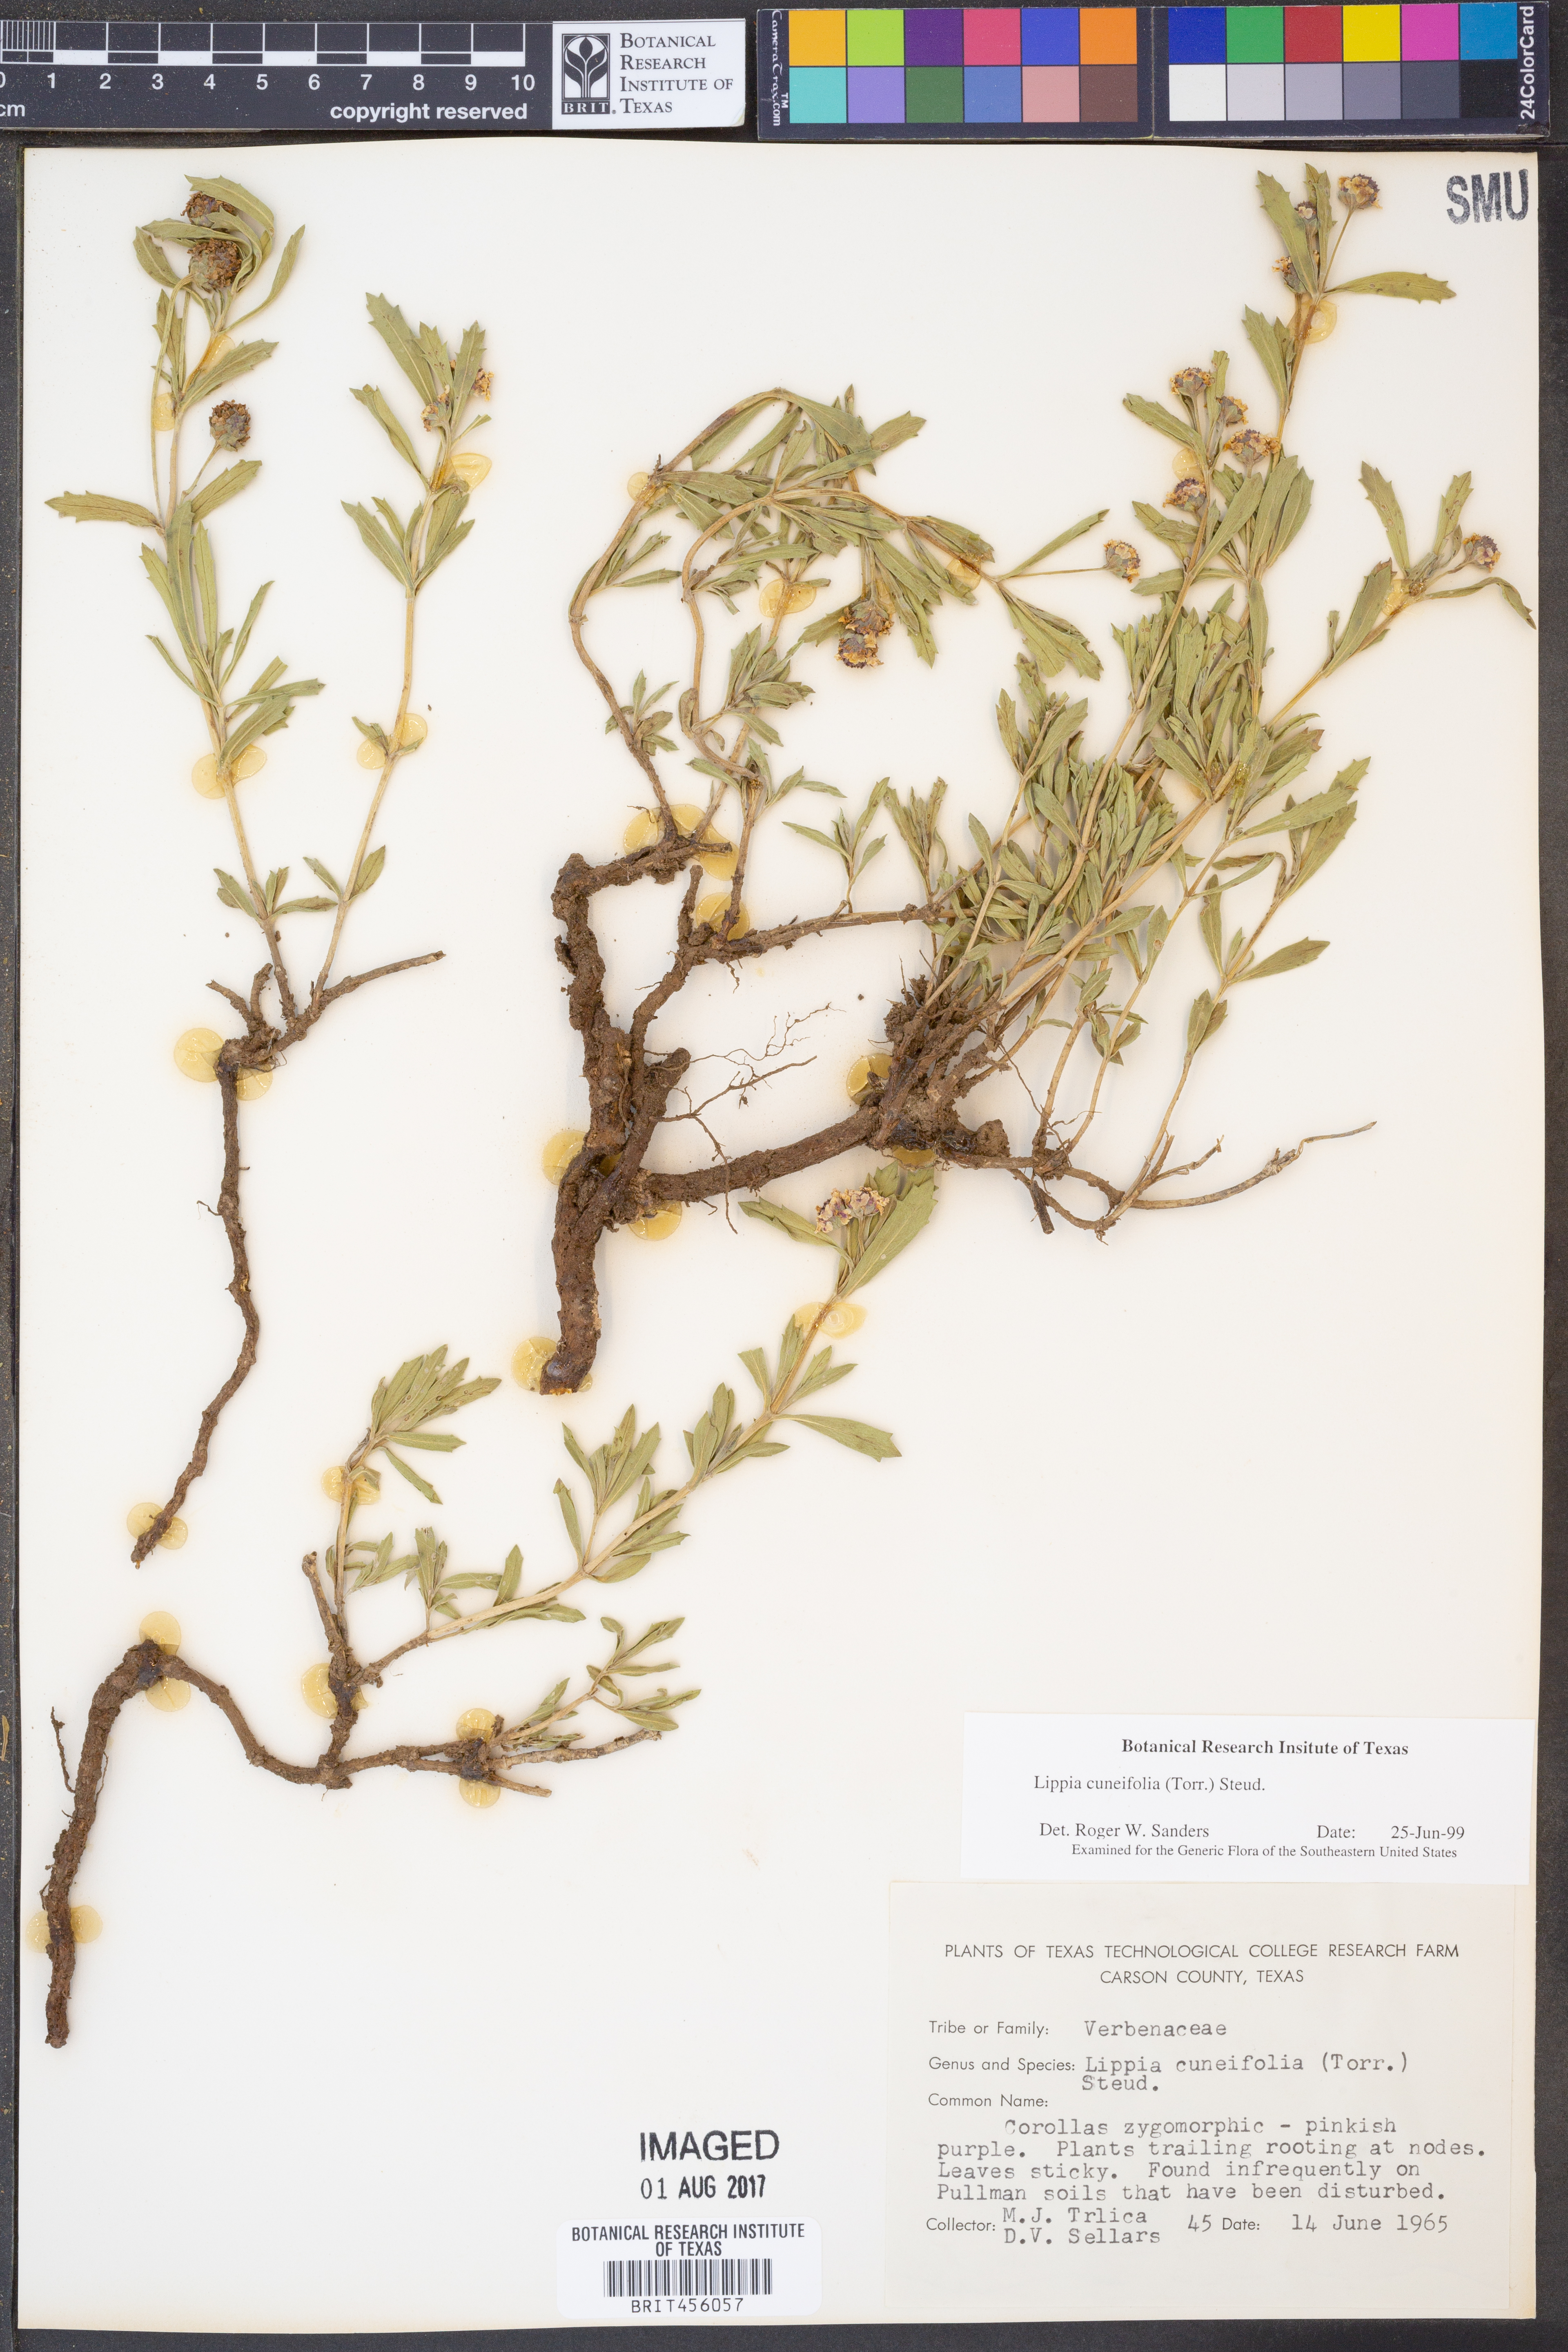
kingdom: Plantae
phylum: Tracheophyta
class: Magnoliopsida
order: Lamiales
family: Verbenaceae
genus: Phyla
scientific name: Phyla cuneifolia
